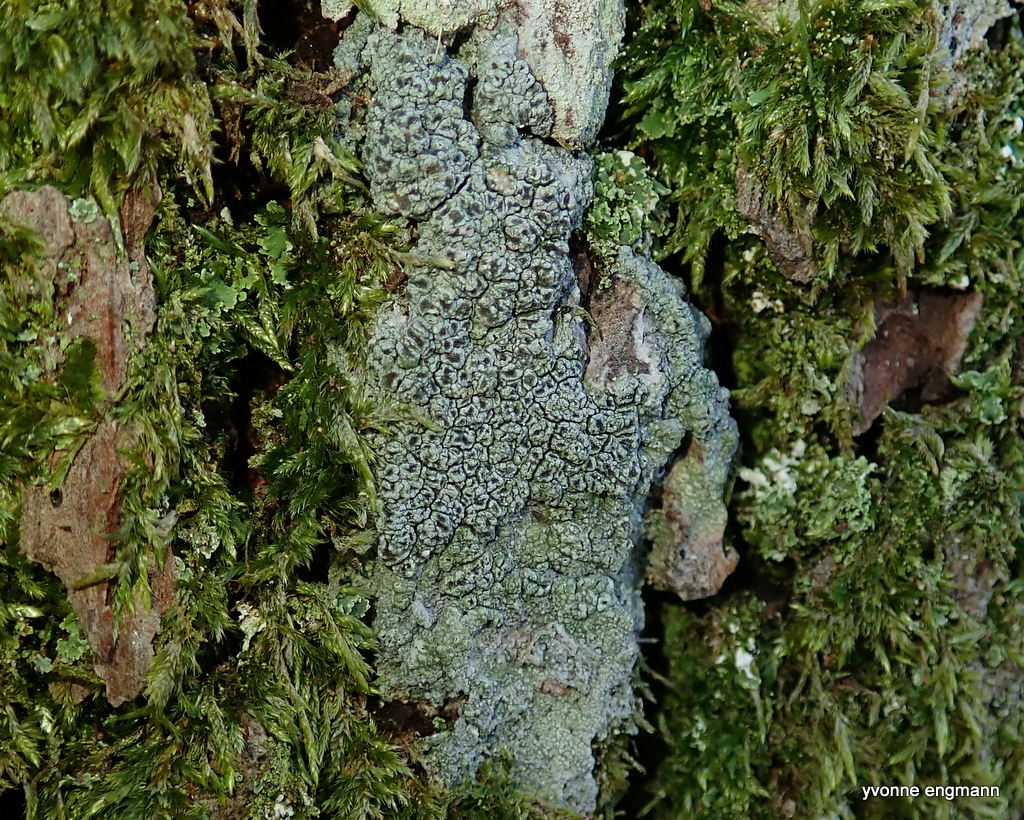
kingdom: Fungi
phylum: Ascomycota
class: Lecanoromycetes
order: Pertusariales
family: Pertusariaceae
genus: Pertusaria
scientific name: Pertusaria hymenea
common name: åben prikvortelav
